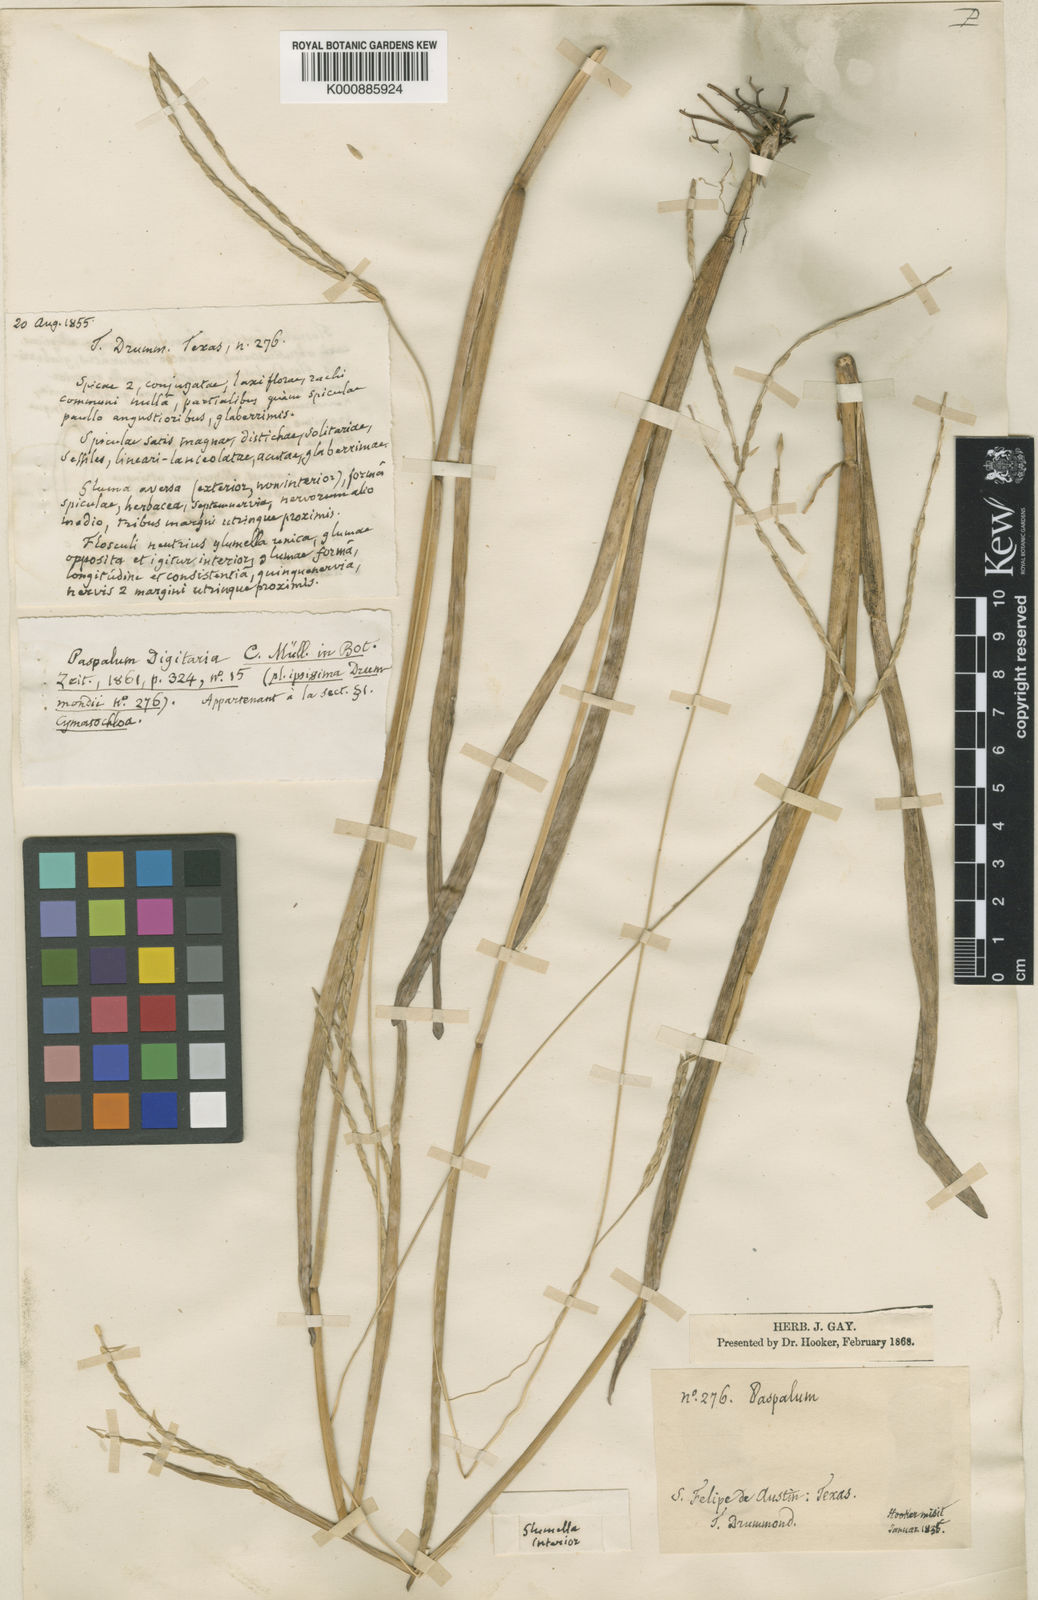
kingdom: Plantae
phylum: Tracheophyta
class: Liliopsida
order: Poales
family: Poaceae
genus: Axonopus
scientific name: Axonopus
